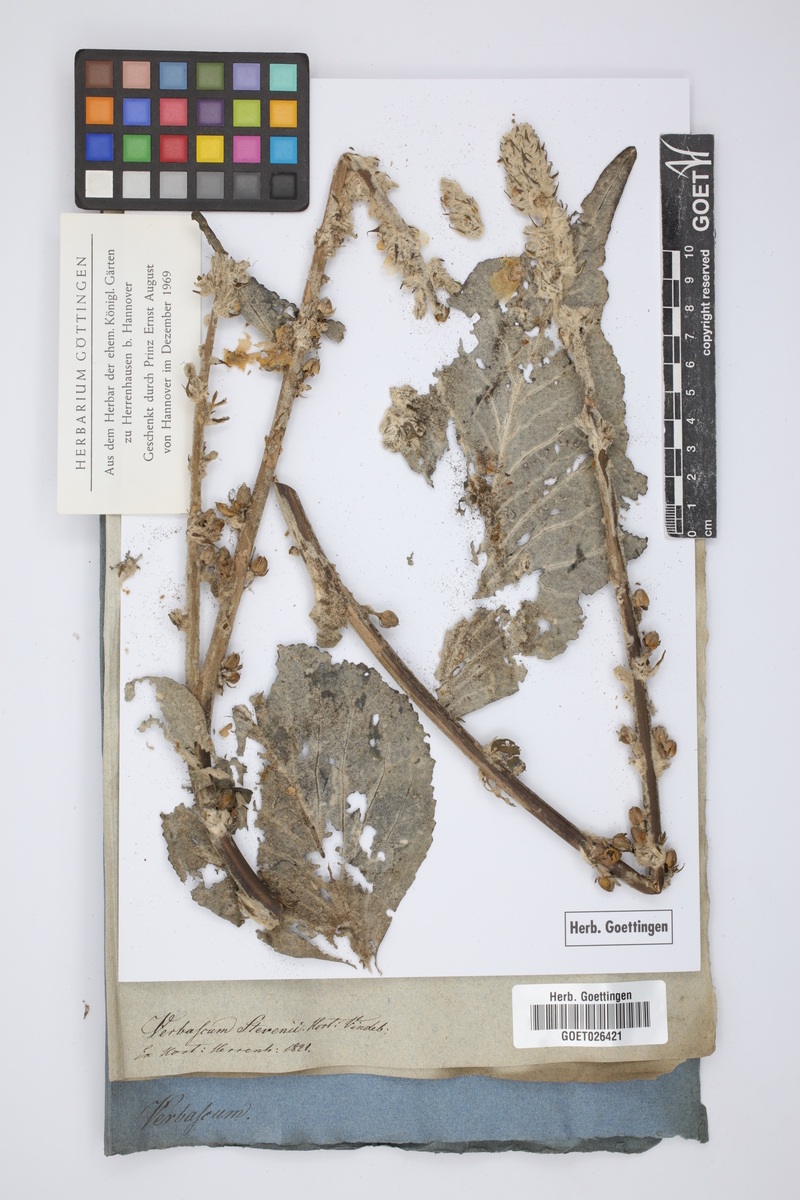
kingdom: Plantae
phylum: Tracheophyta
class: Magnoliopsida
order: Lamiales
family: Scrophulariaceae
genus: Verbascum
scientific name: Verbascum gnaphalodes
